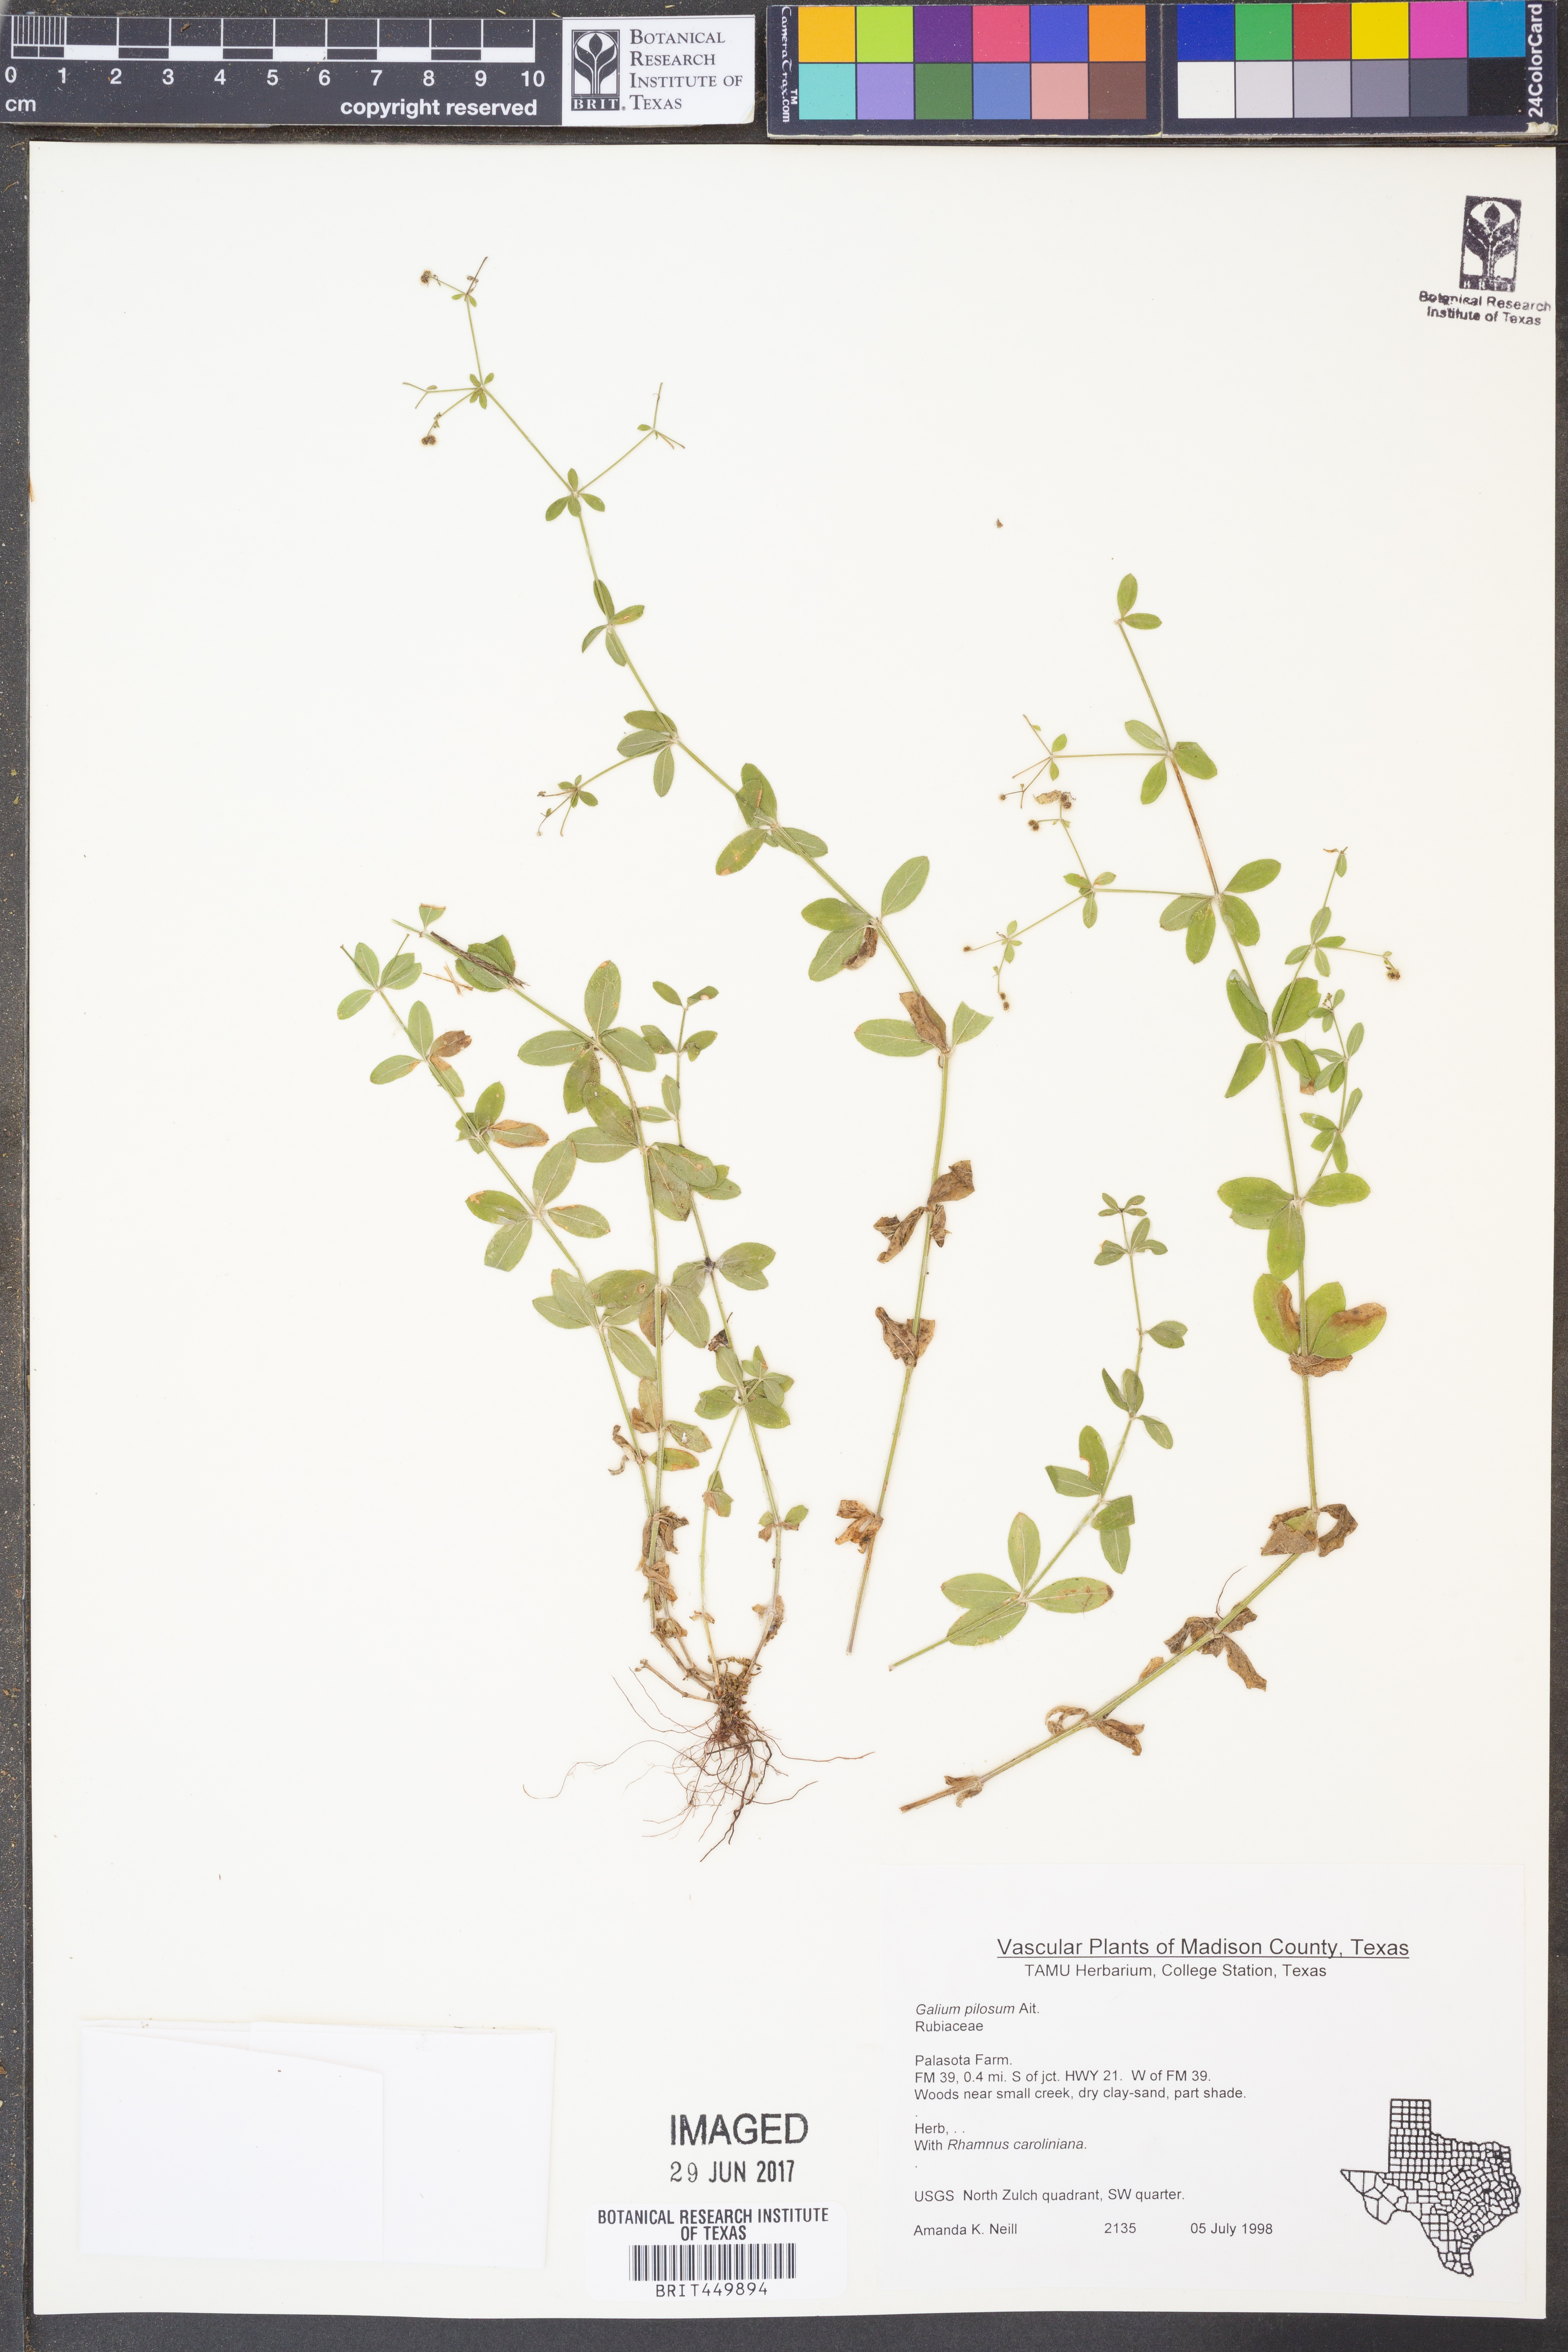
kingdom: Plantae
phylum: Tracheophyta
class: Magnoliopsida
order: Gentianales
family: Rubiaceae
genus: Galium
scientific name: Galium pilosum
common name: Hairy bedstraw
